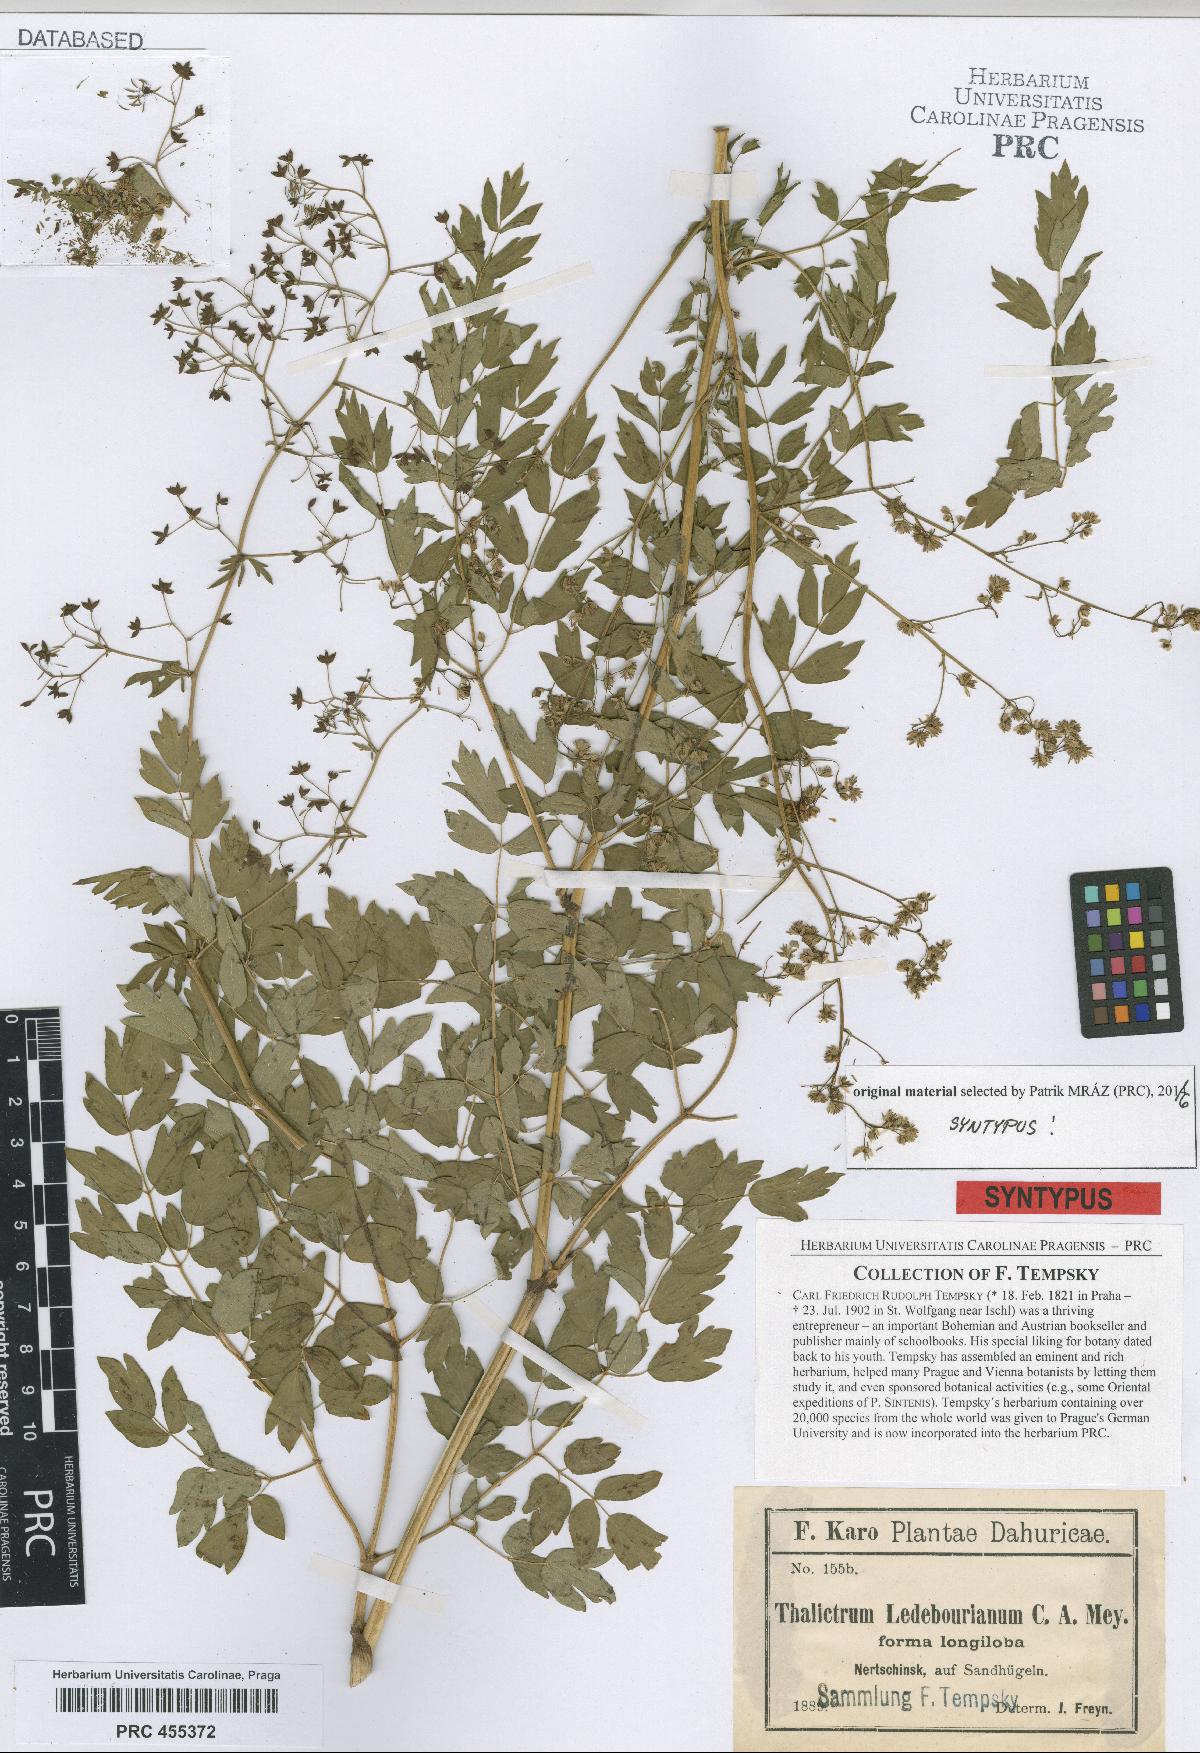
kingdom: Plantae
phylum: Tracheophyta
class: Magnoliopsida
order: Ranunculales
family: Ranunculaceae
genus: Thalictrum
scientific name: Thalictrum squarrosum
